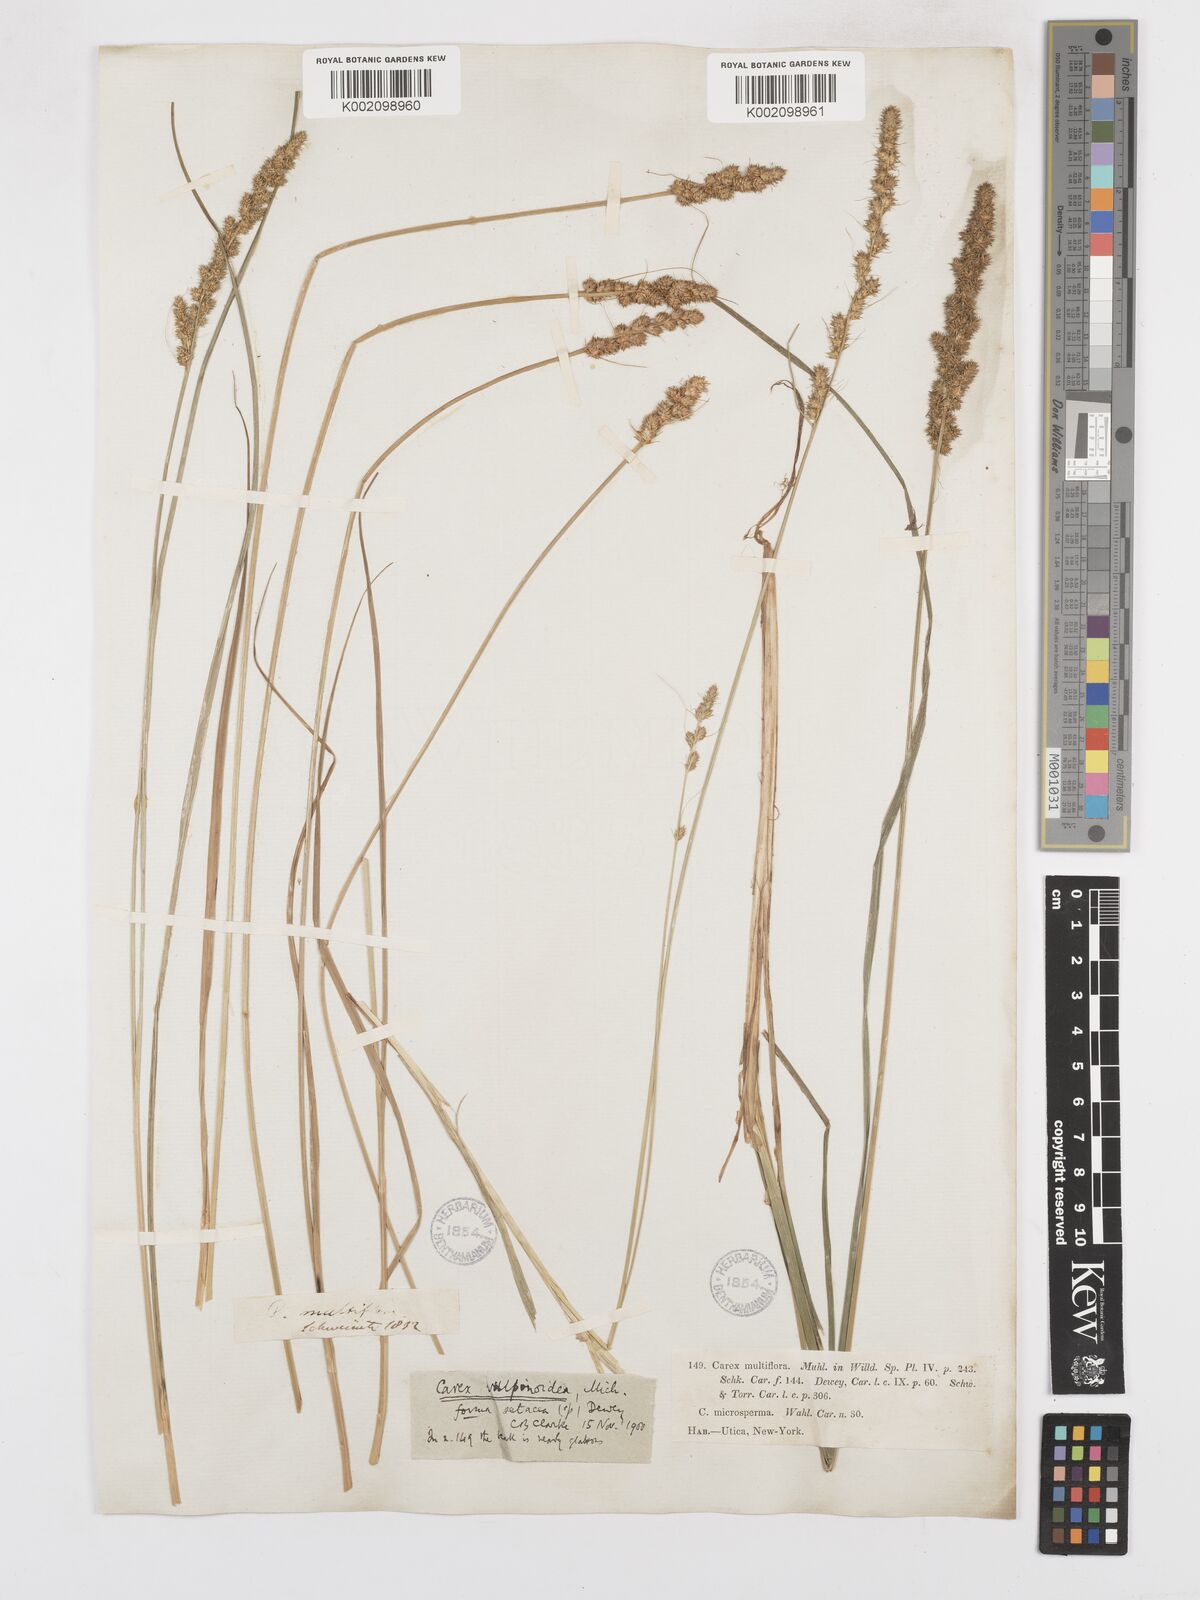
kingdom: Plantae
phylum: Tracheophyta
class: Liliopsida
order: Poales
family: Cyperaceae
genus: Carex
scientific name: Carex vulpinoidea
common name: American fox-sedge
